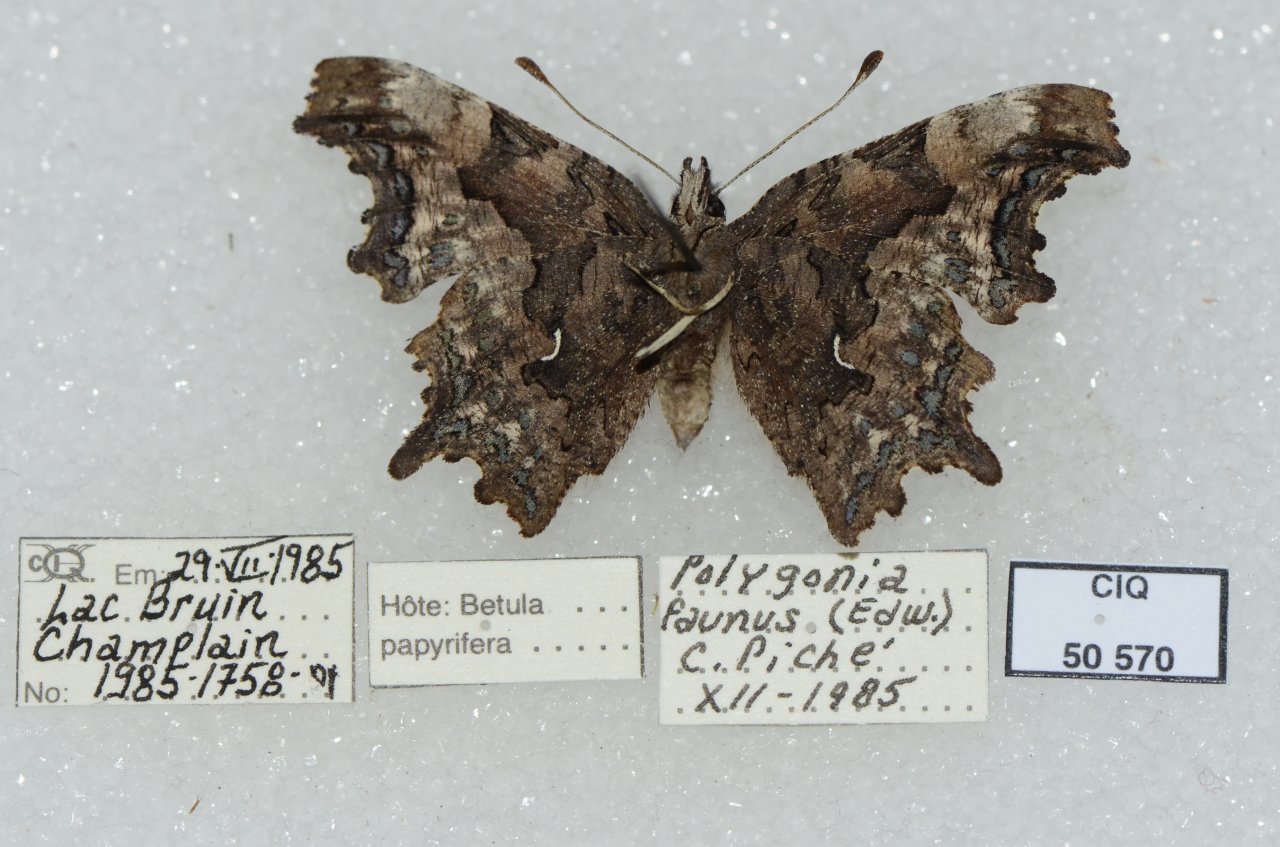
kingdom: Animalia
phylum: Arthropoda
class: Insecta
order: Lepidoptera
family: Nymphalidae
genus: Polygonia
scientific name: Polygonia faunus
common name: Green Comma
